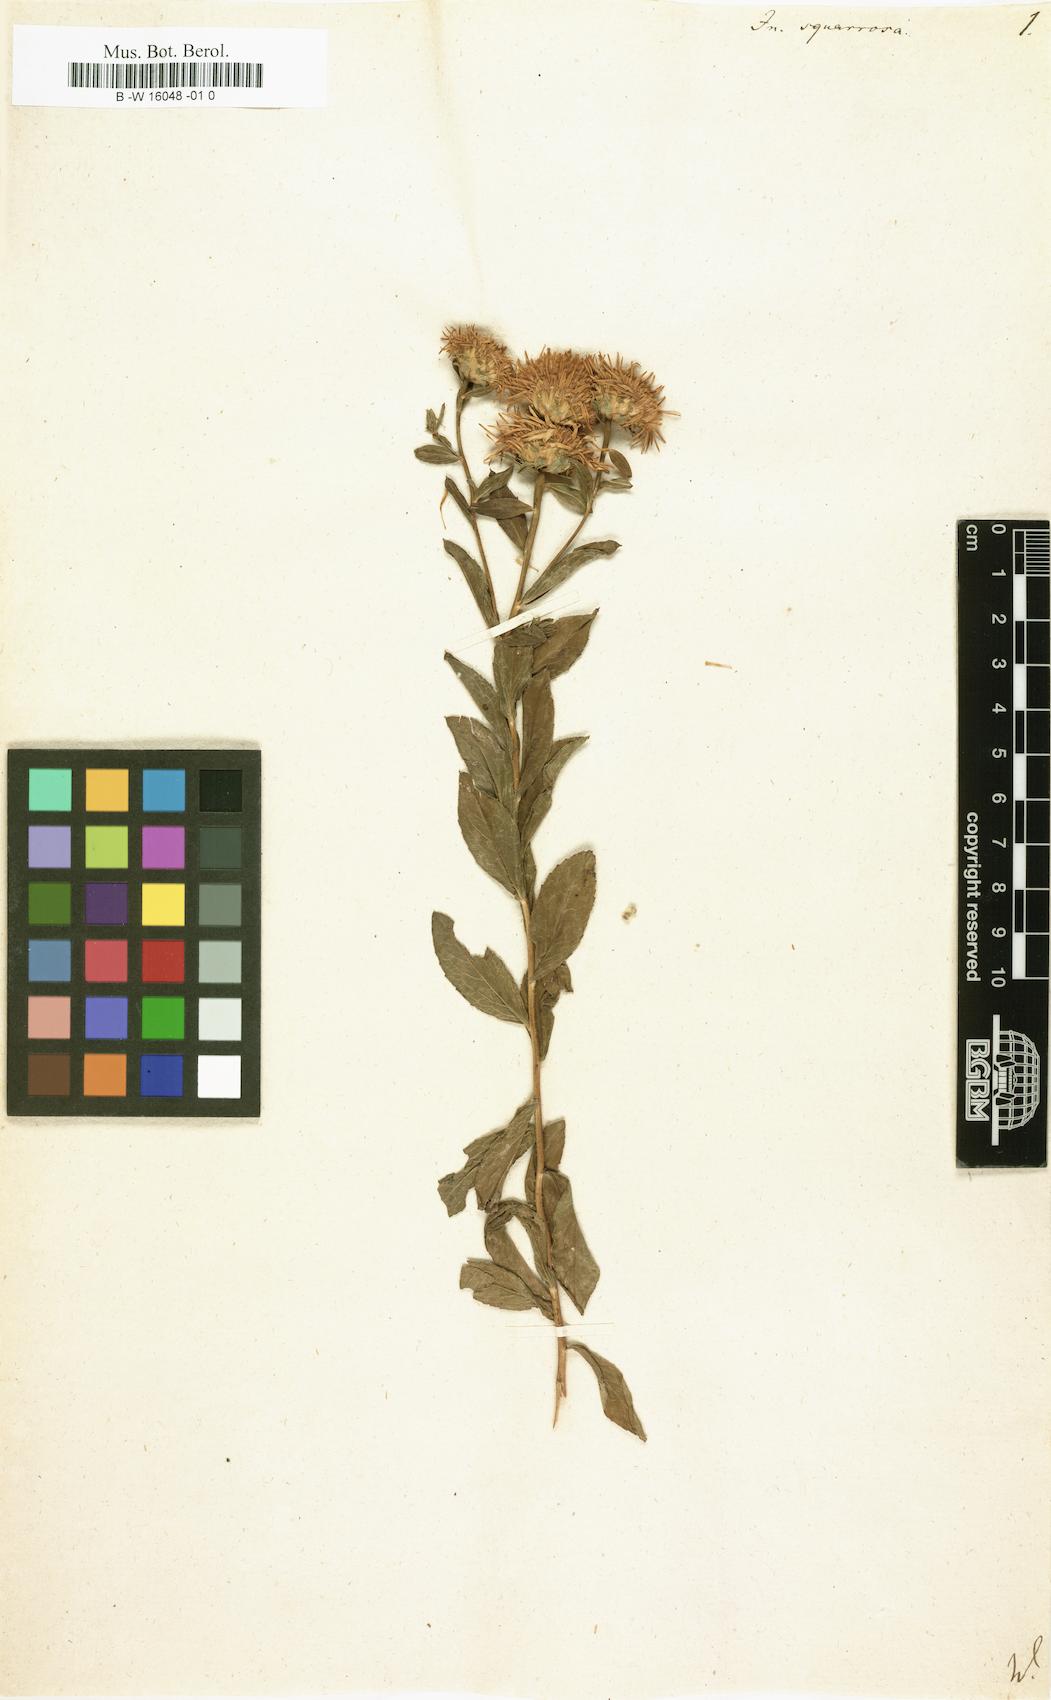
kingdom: Plantae
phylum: Tracheophyta
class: Magnoliopsida
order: Asterales
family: Asteraceae
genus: Pentanema
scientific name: Pentanema squarrosum
